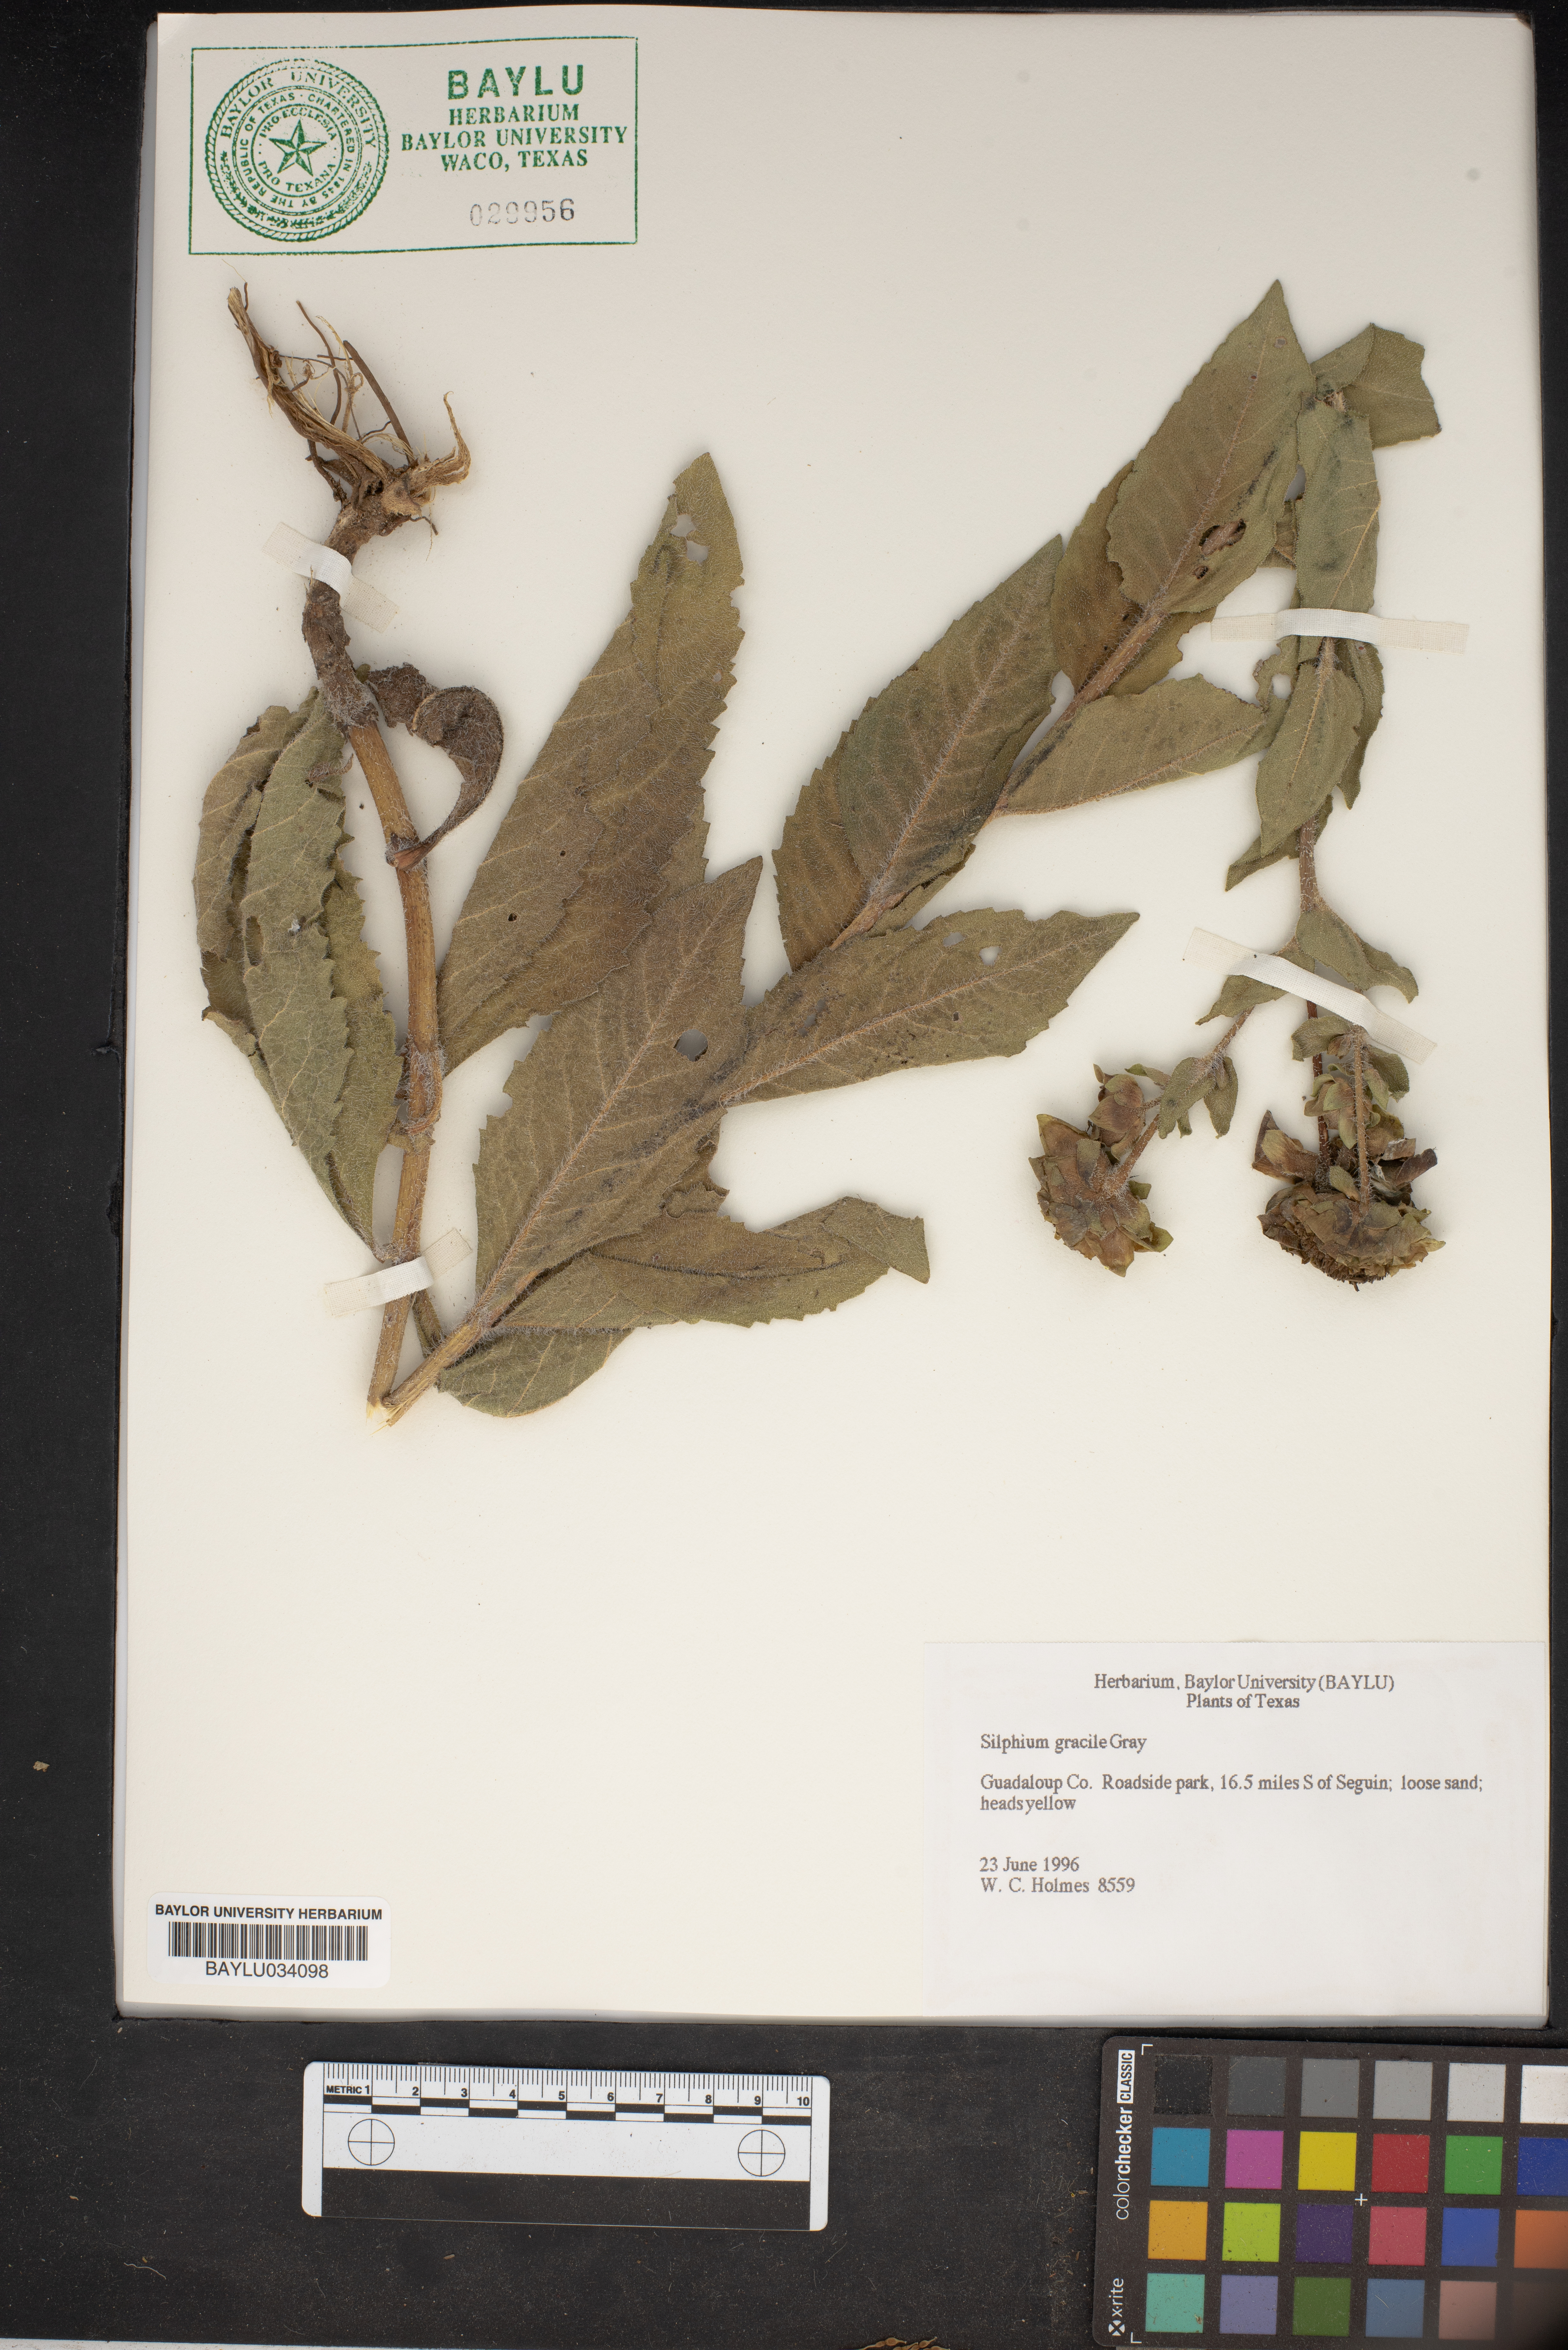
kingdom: Plantae
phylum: Tracheophyta
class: Magnoliopsida
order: Asterales
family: Asteraceae
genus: Silphium
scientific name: Silphium radula
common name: Roughleaf rosinweed
